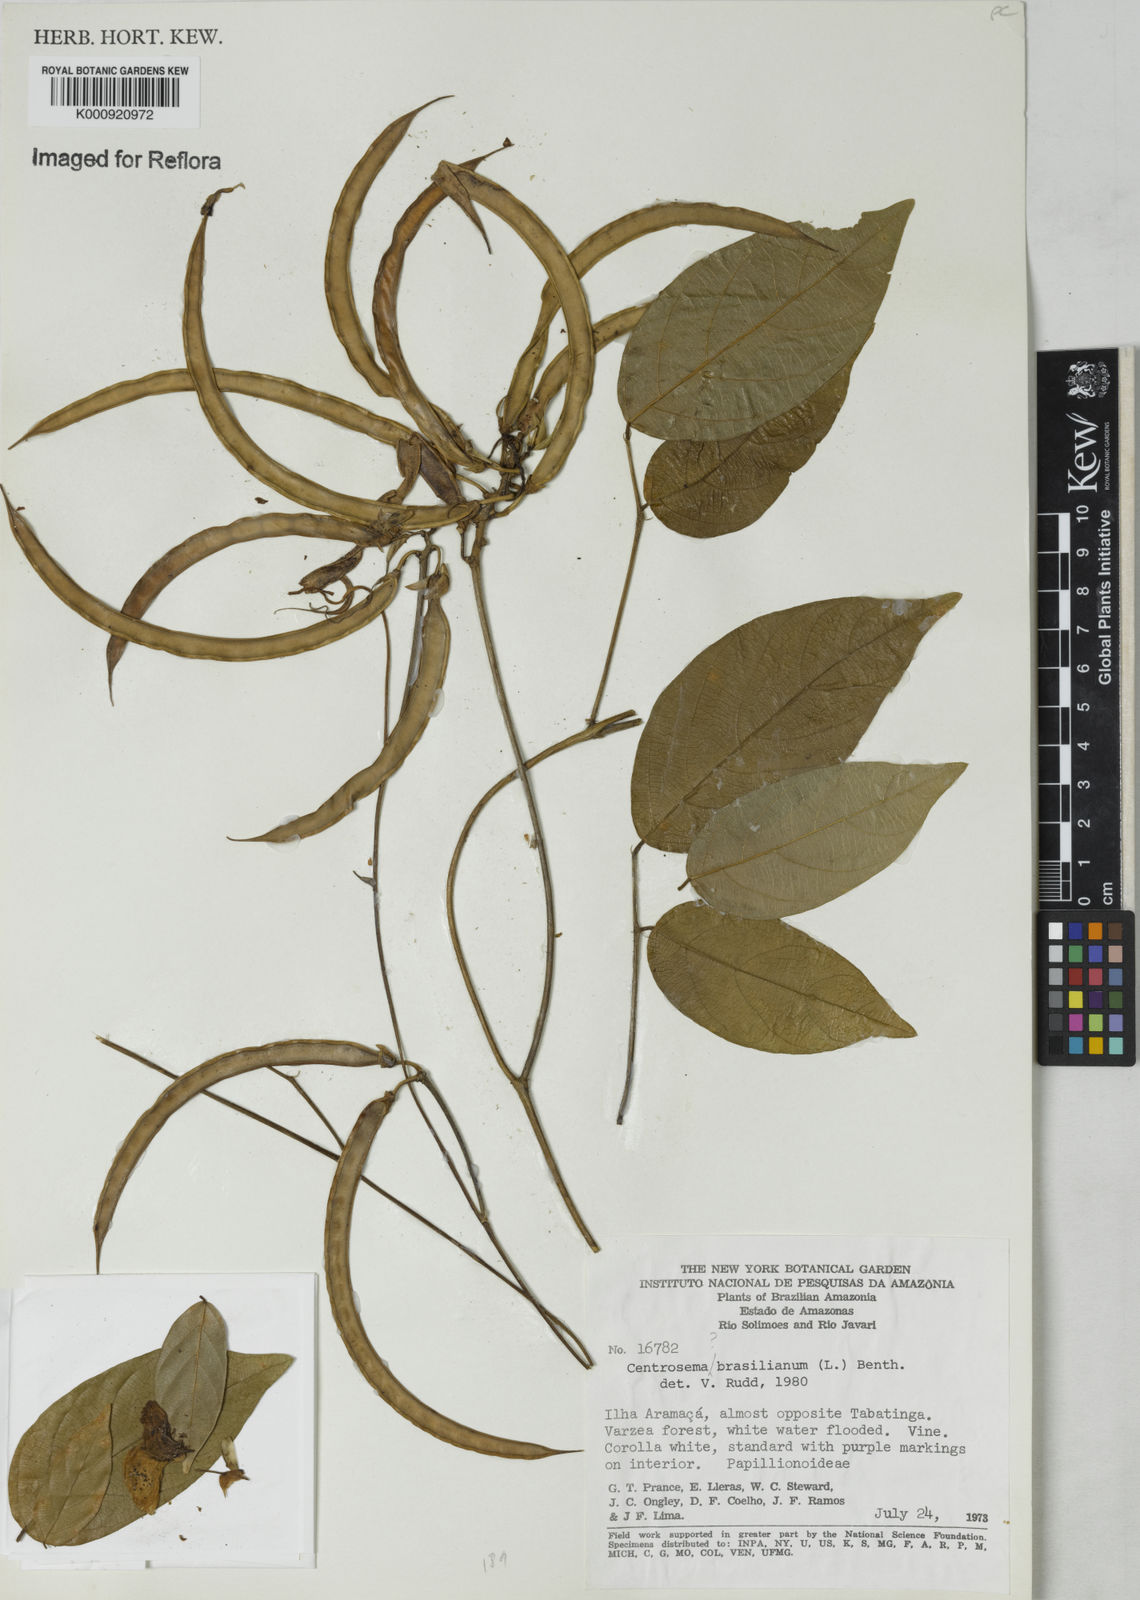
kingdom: Plantae
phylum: Tracheophyta
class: Magnoliopsida
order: Fabales
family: Fabaceae
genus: Centrosema
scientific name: Centrosema
